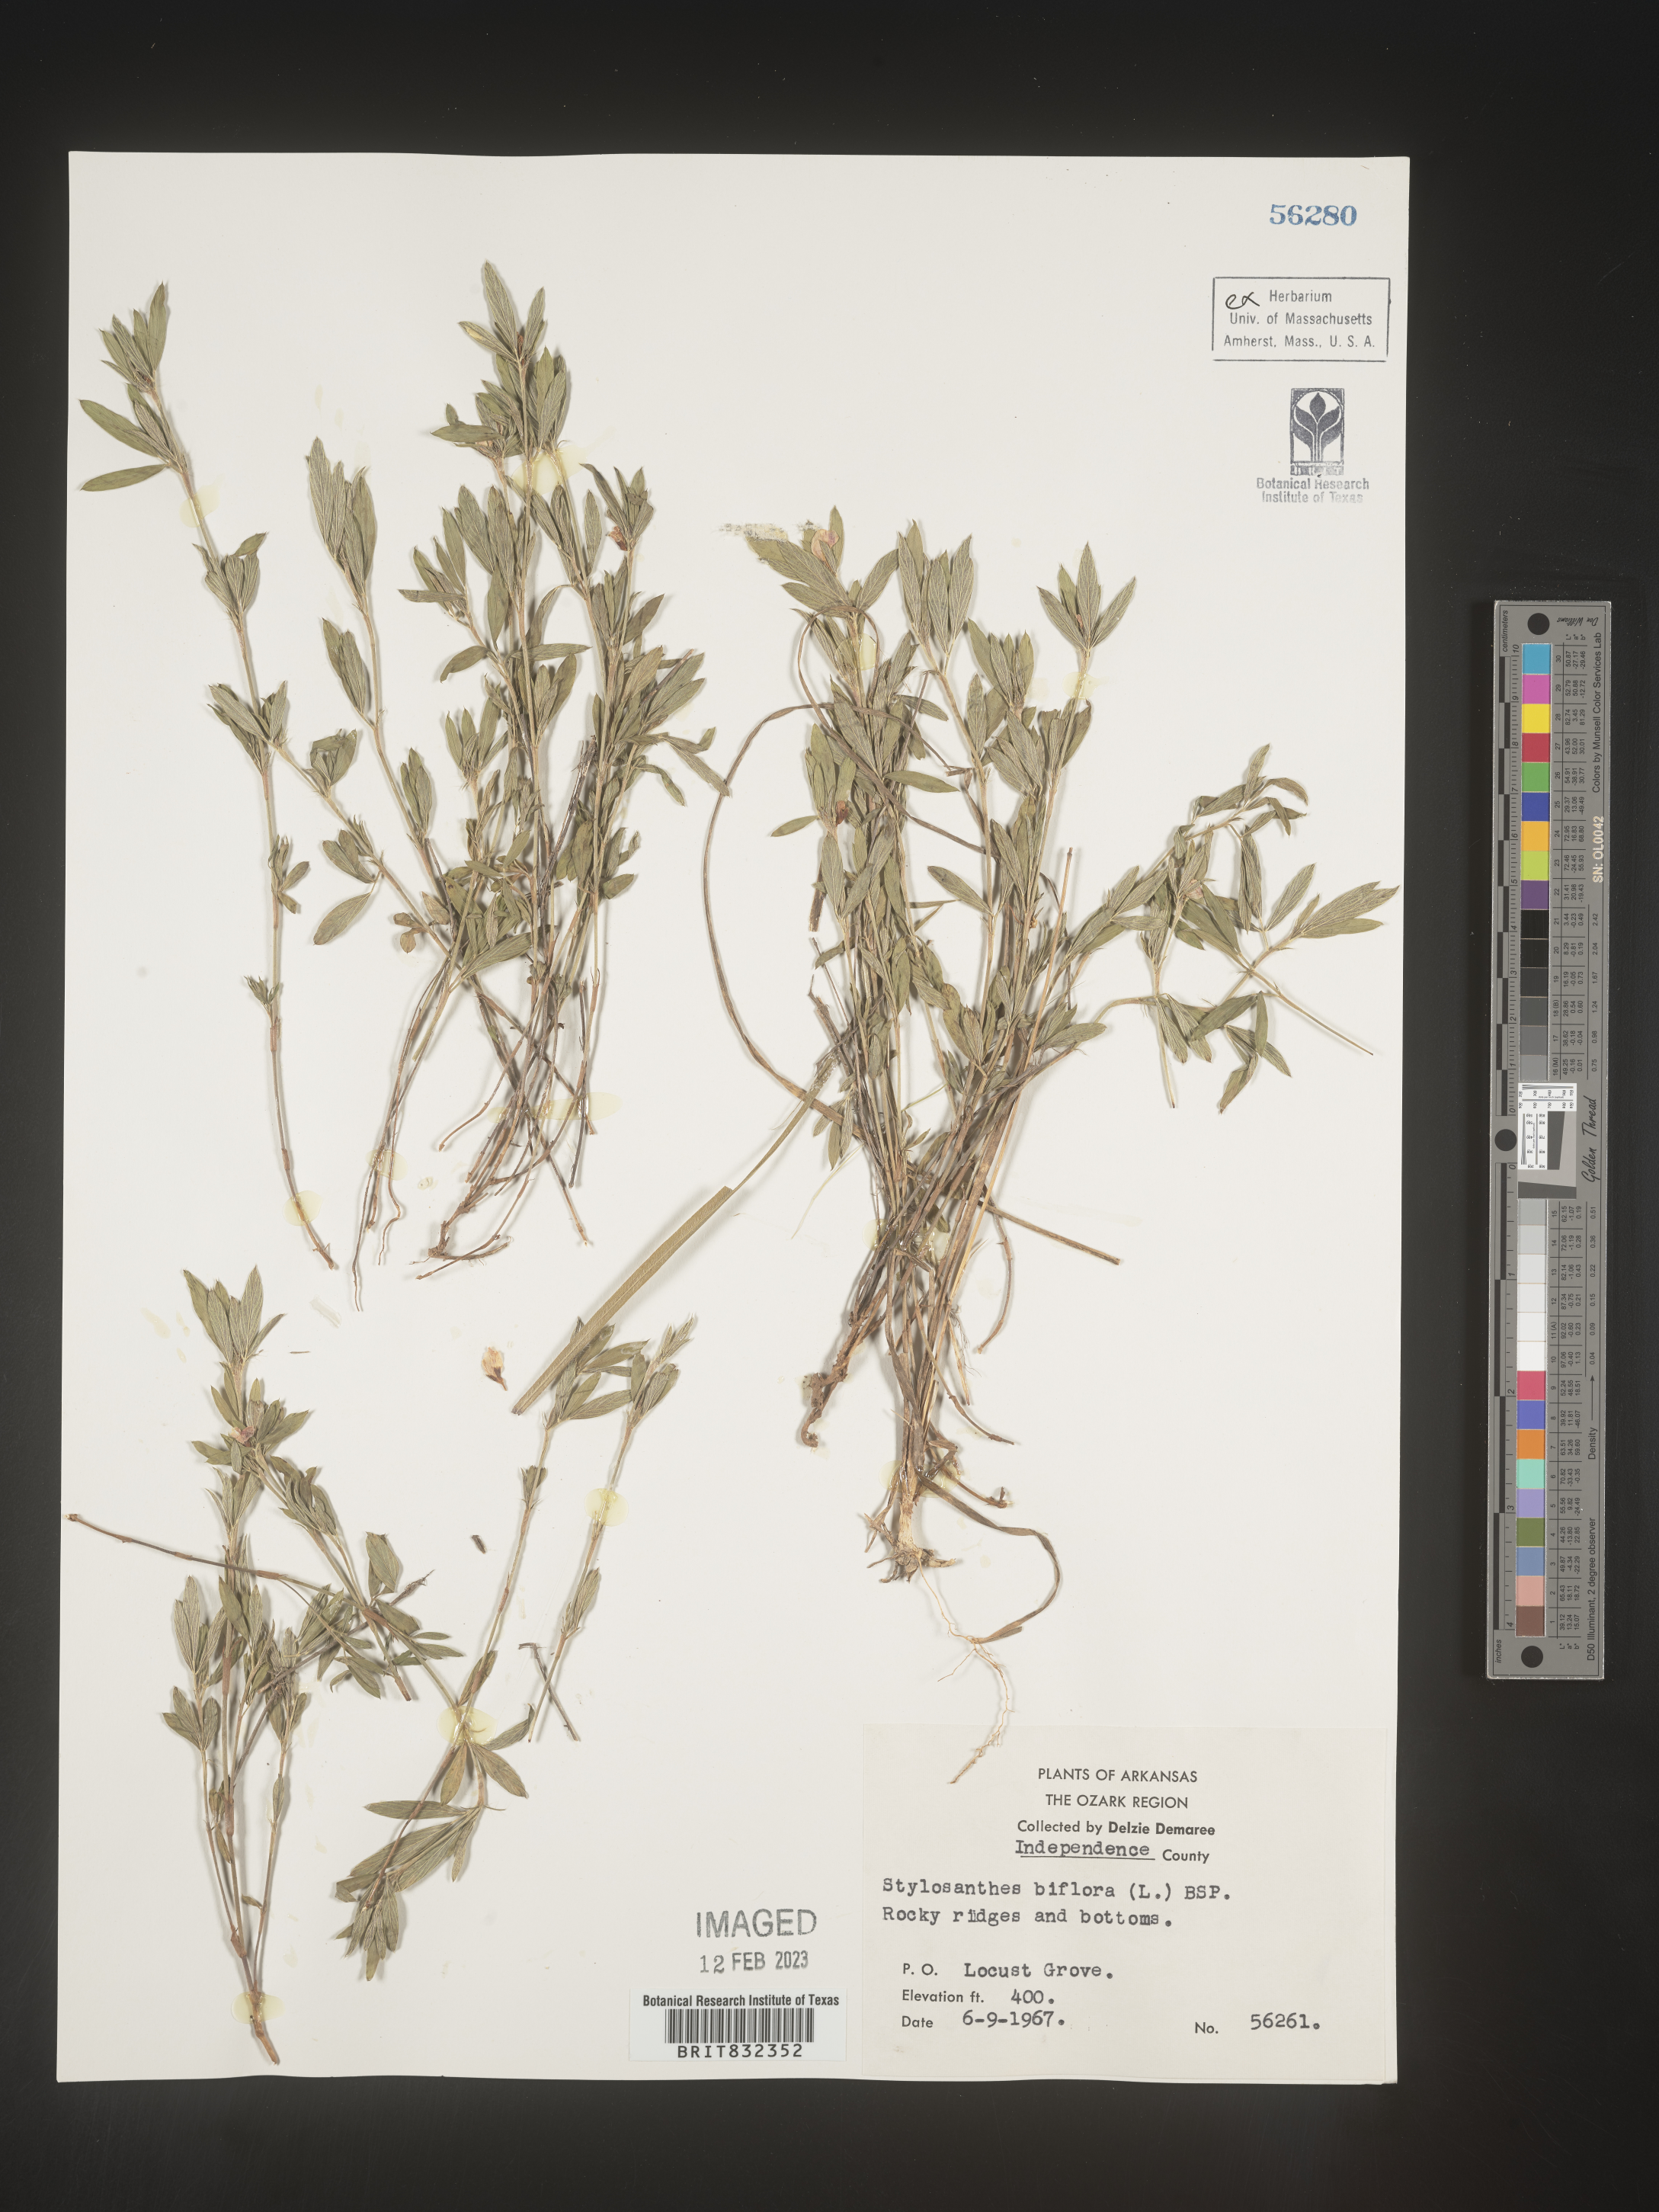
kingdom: Plantae
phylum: Tracheophyta
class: Magnoliopsida
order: Fabales
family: Fabaceae
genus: Stylosanthes
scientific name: Stylosanthes biflora
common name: Two-flower pencil-flower
